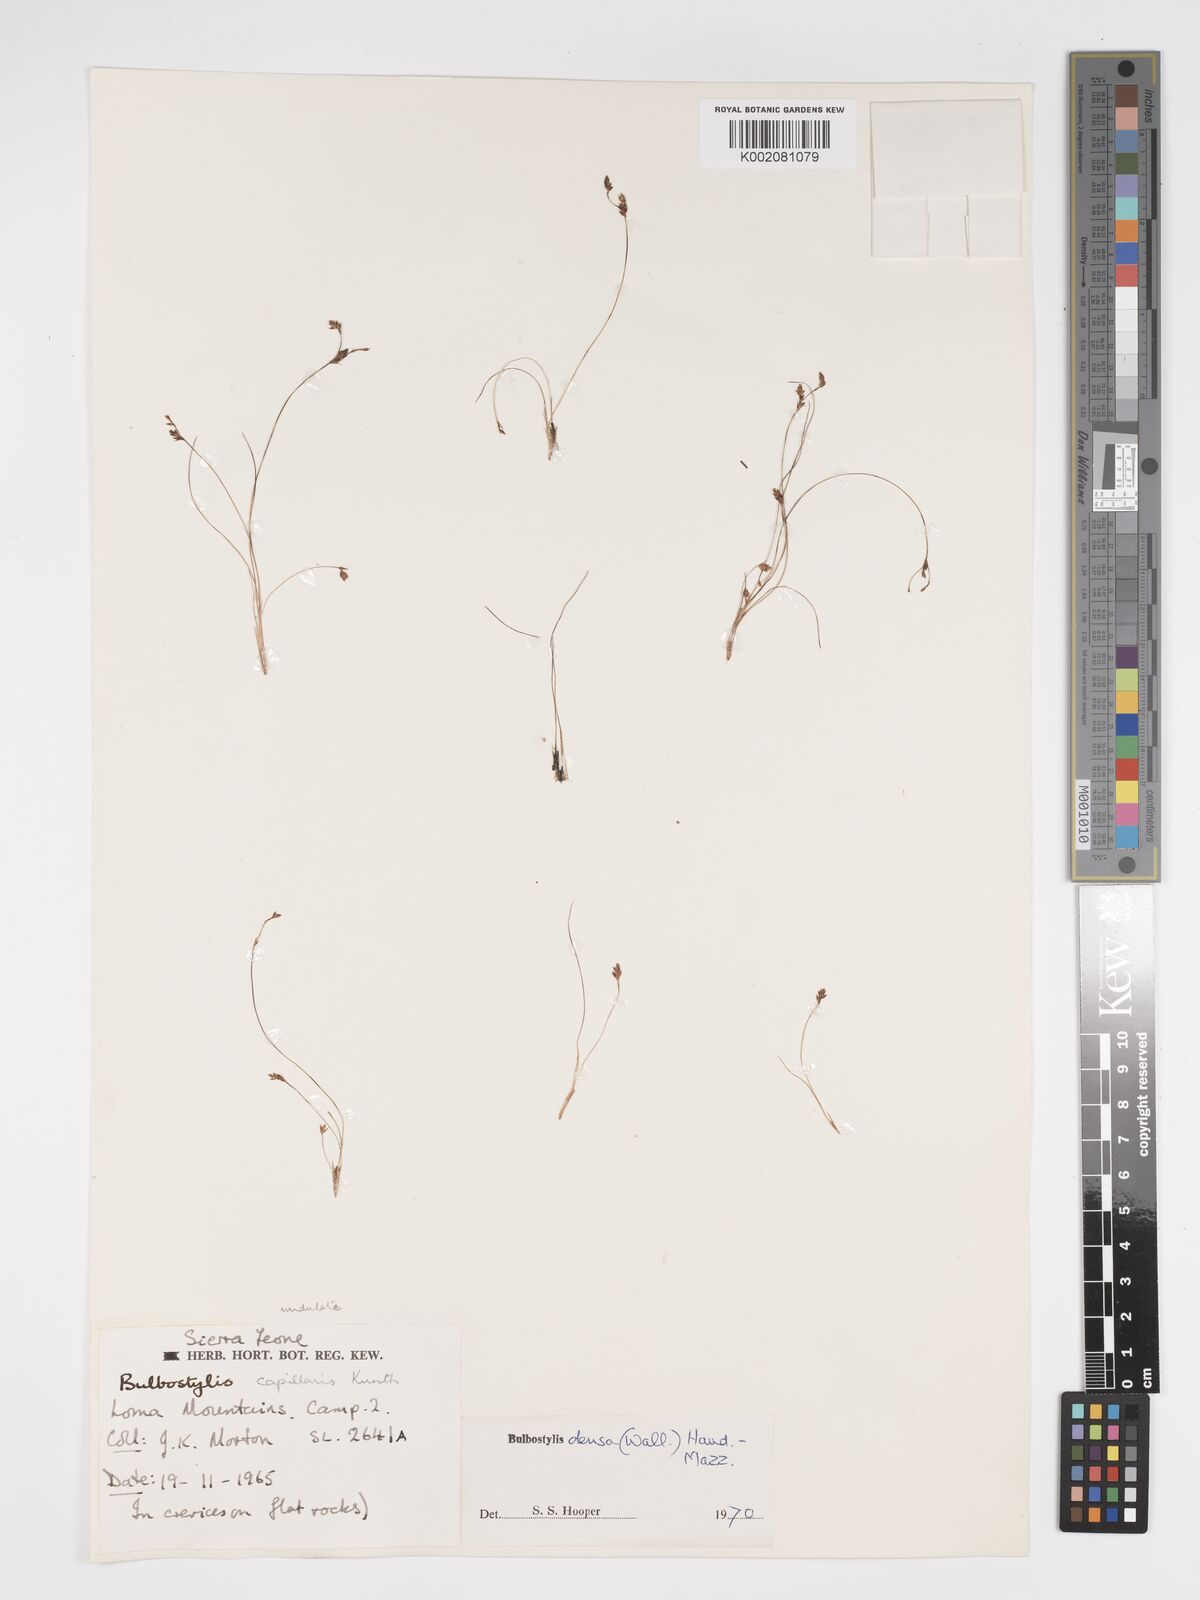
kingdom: Plantae
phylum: Tracheophyta
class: Liliopsida
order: Poales
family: Cyperaceae
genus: Bulbostylis
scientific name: Bulbostylis
